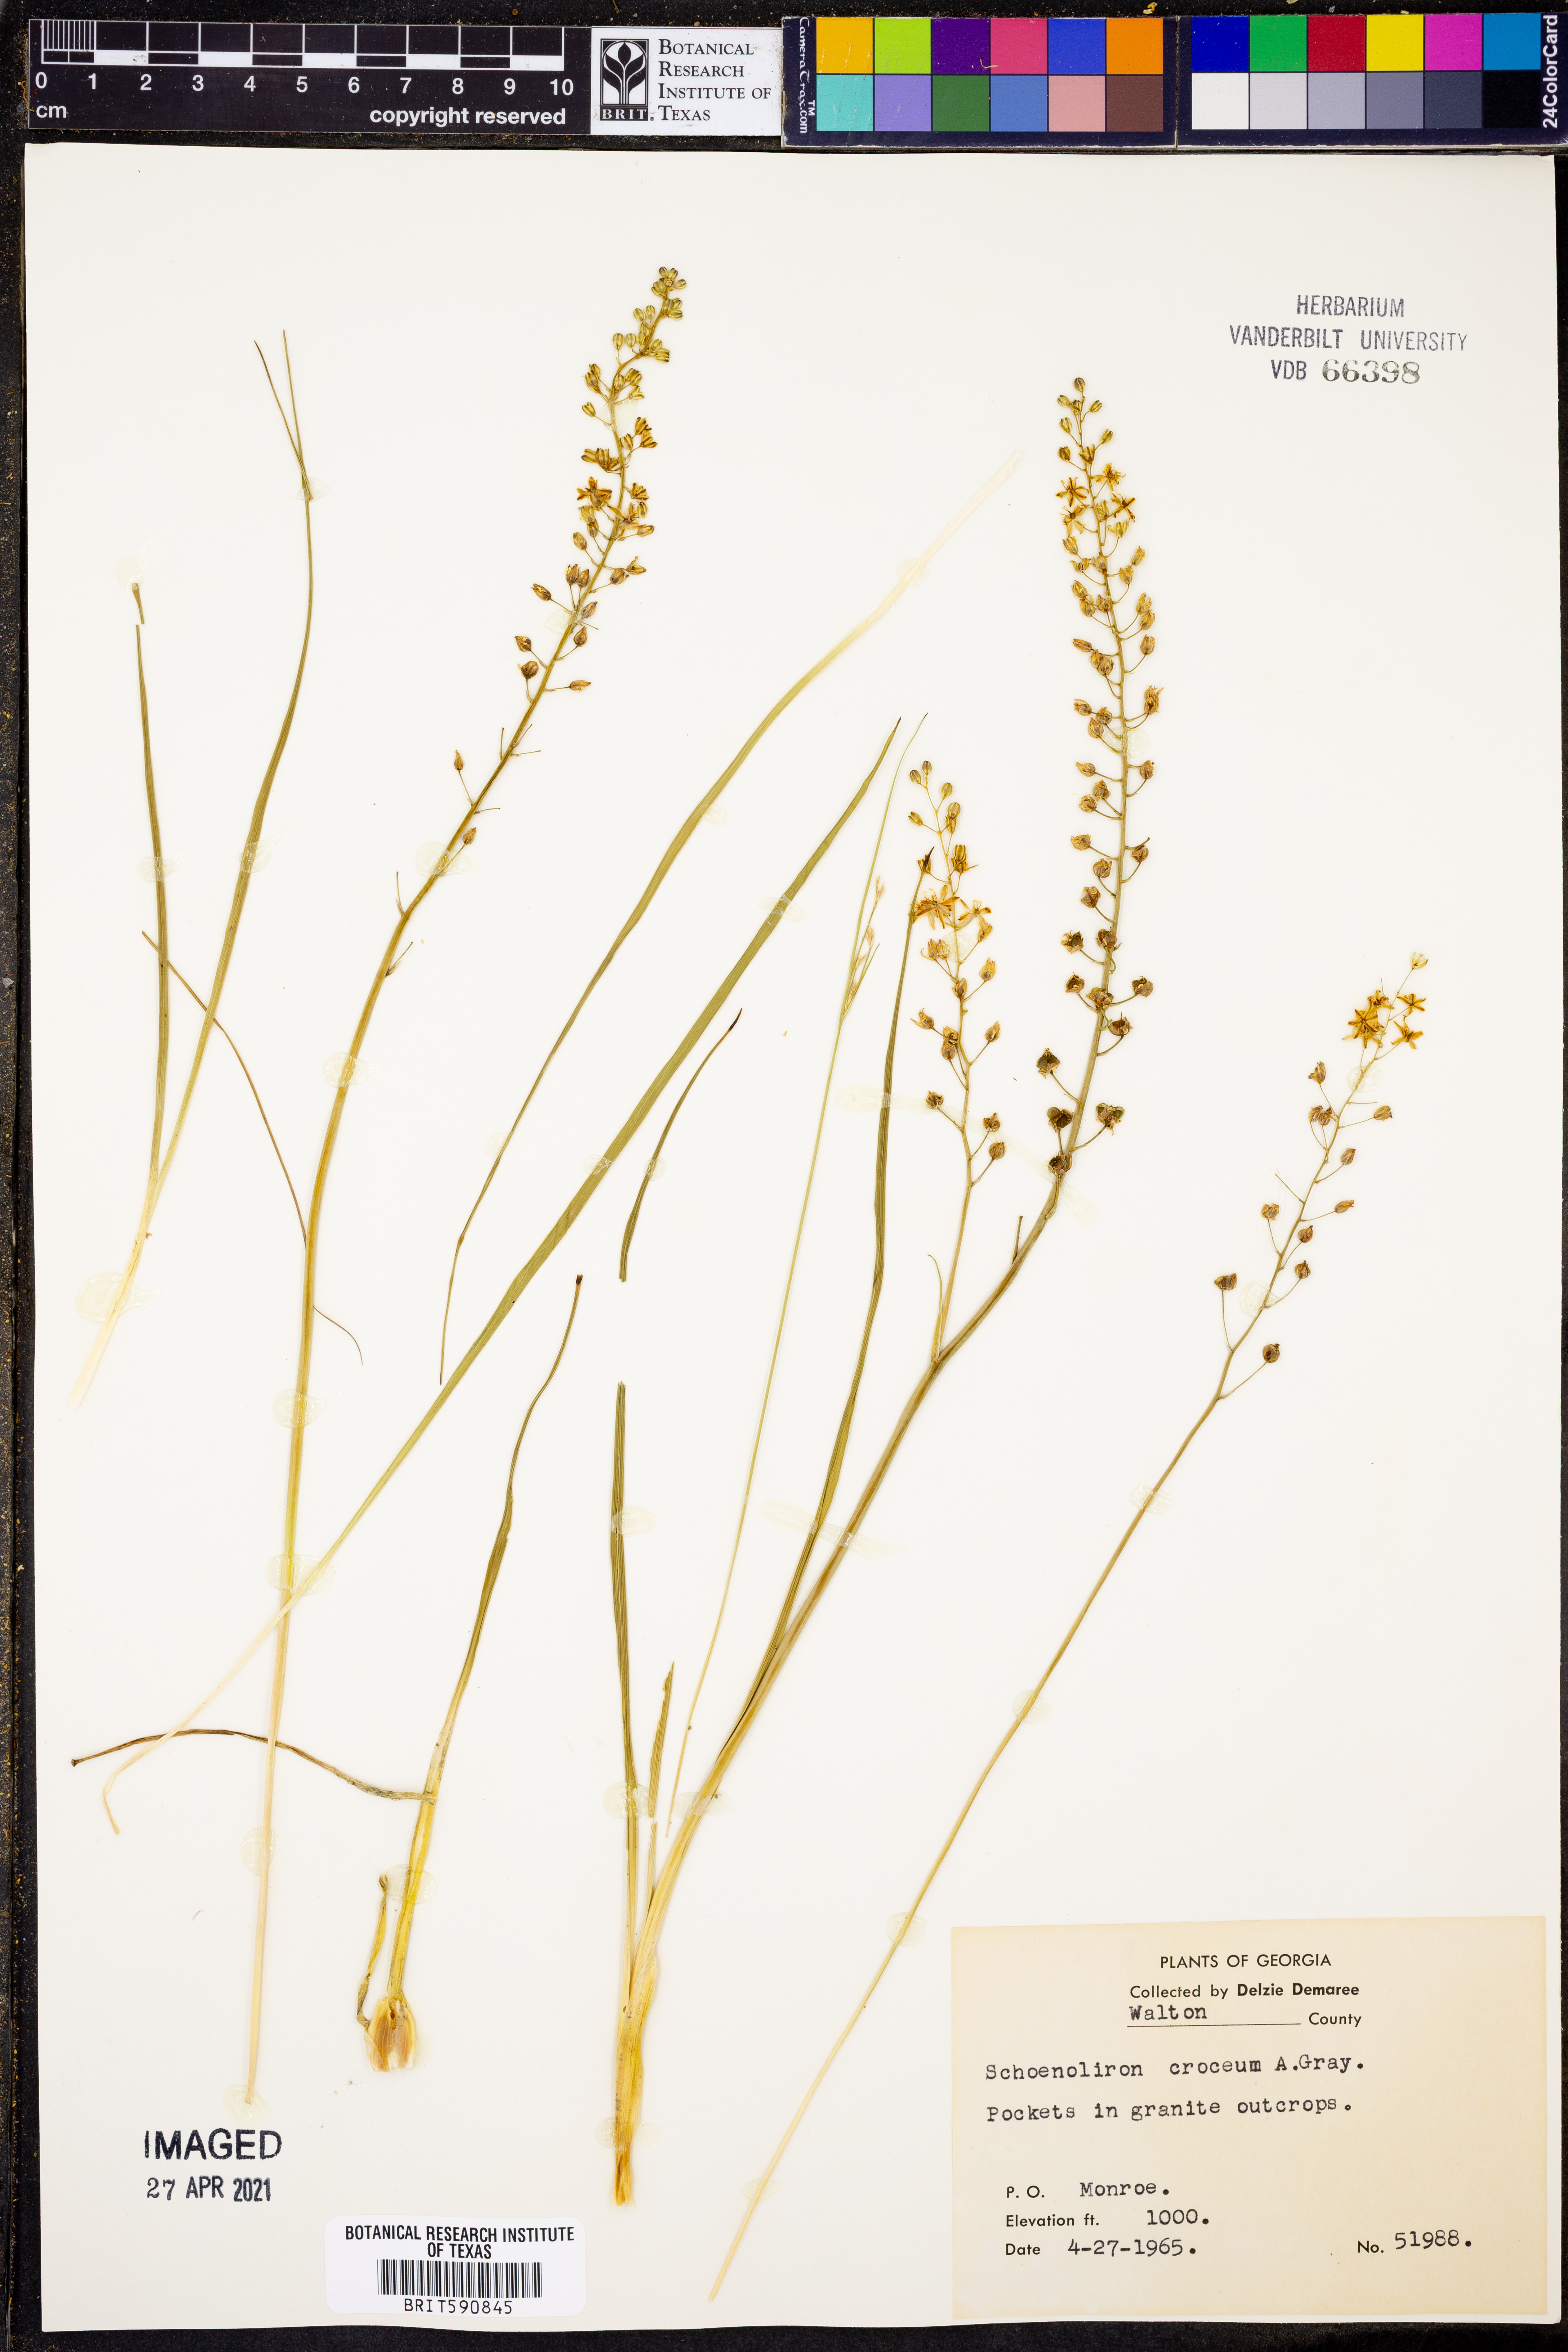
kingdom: Plantae
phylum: Tracheophyta
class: Liliopsida
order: Asparagales
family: Asparagaceae
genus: Schoenolirion
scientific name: Schoenolirion croceum
